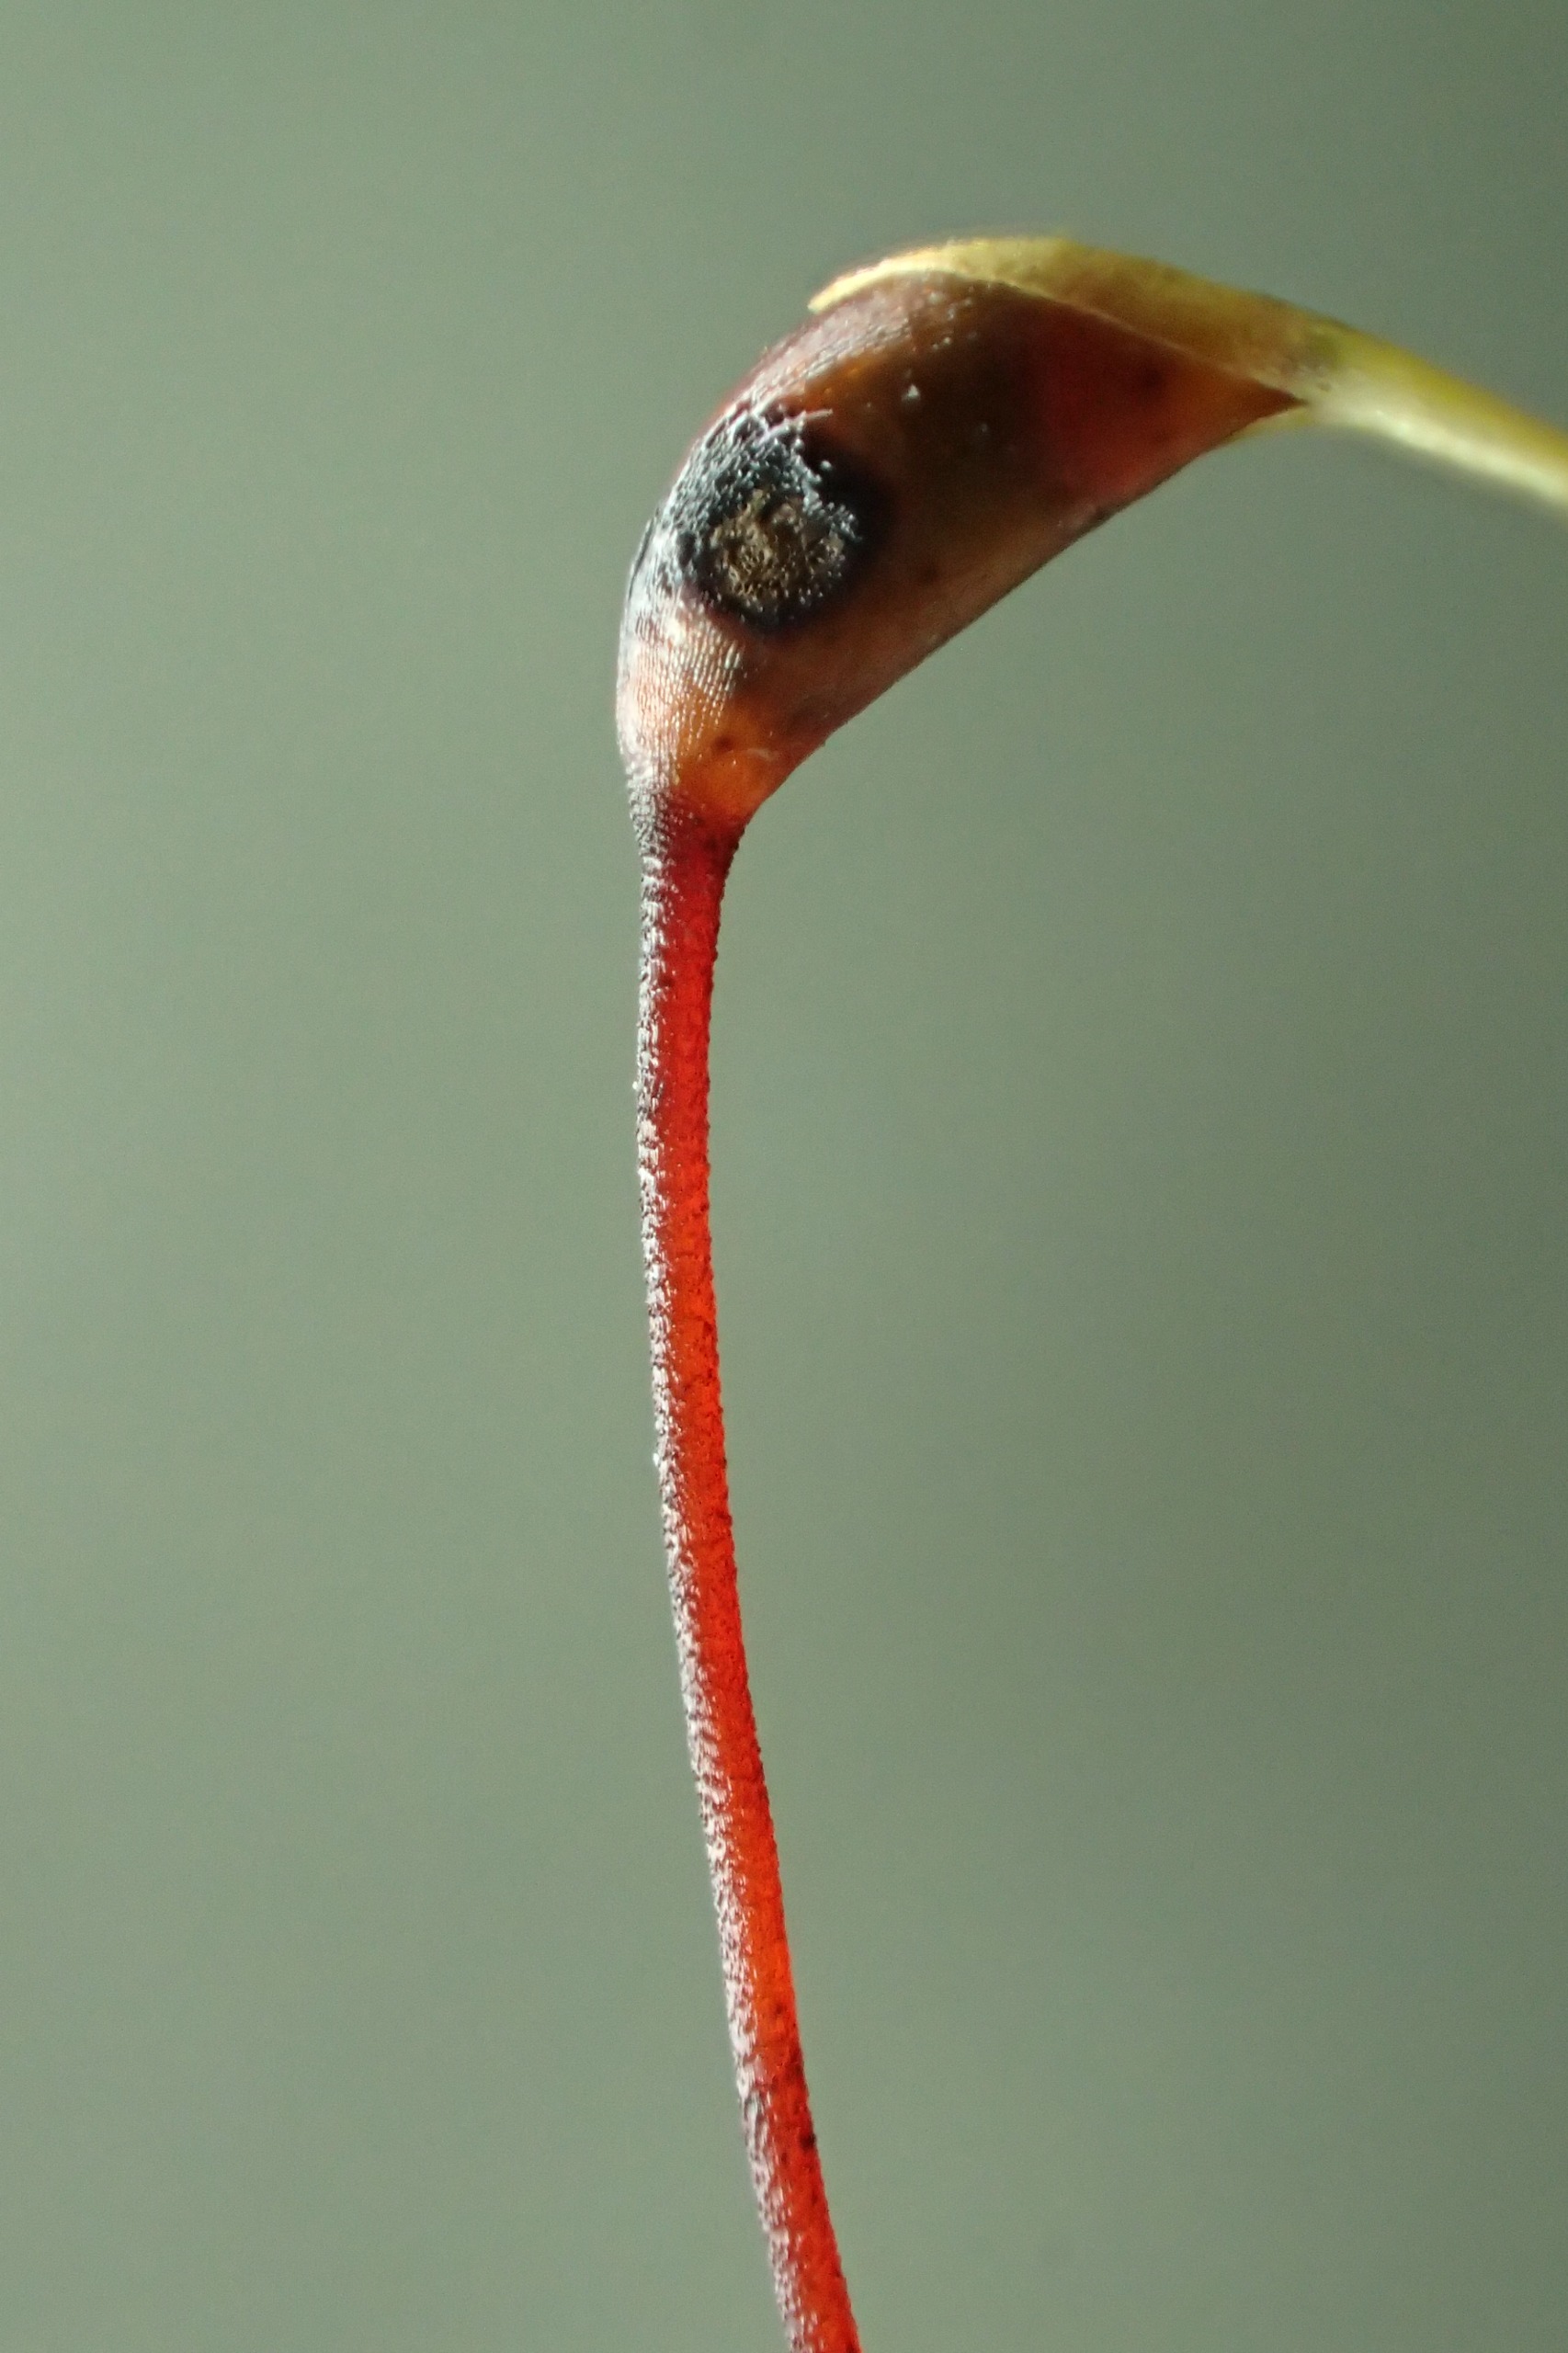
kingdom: Plantae
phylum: Bryophyta
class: Bryopsida
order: Hypnales
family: Brachytheciaceae
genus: Brachythecium
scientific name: Brachythecium rutabulum
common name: Almindelig kortkapsel
